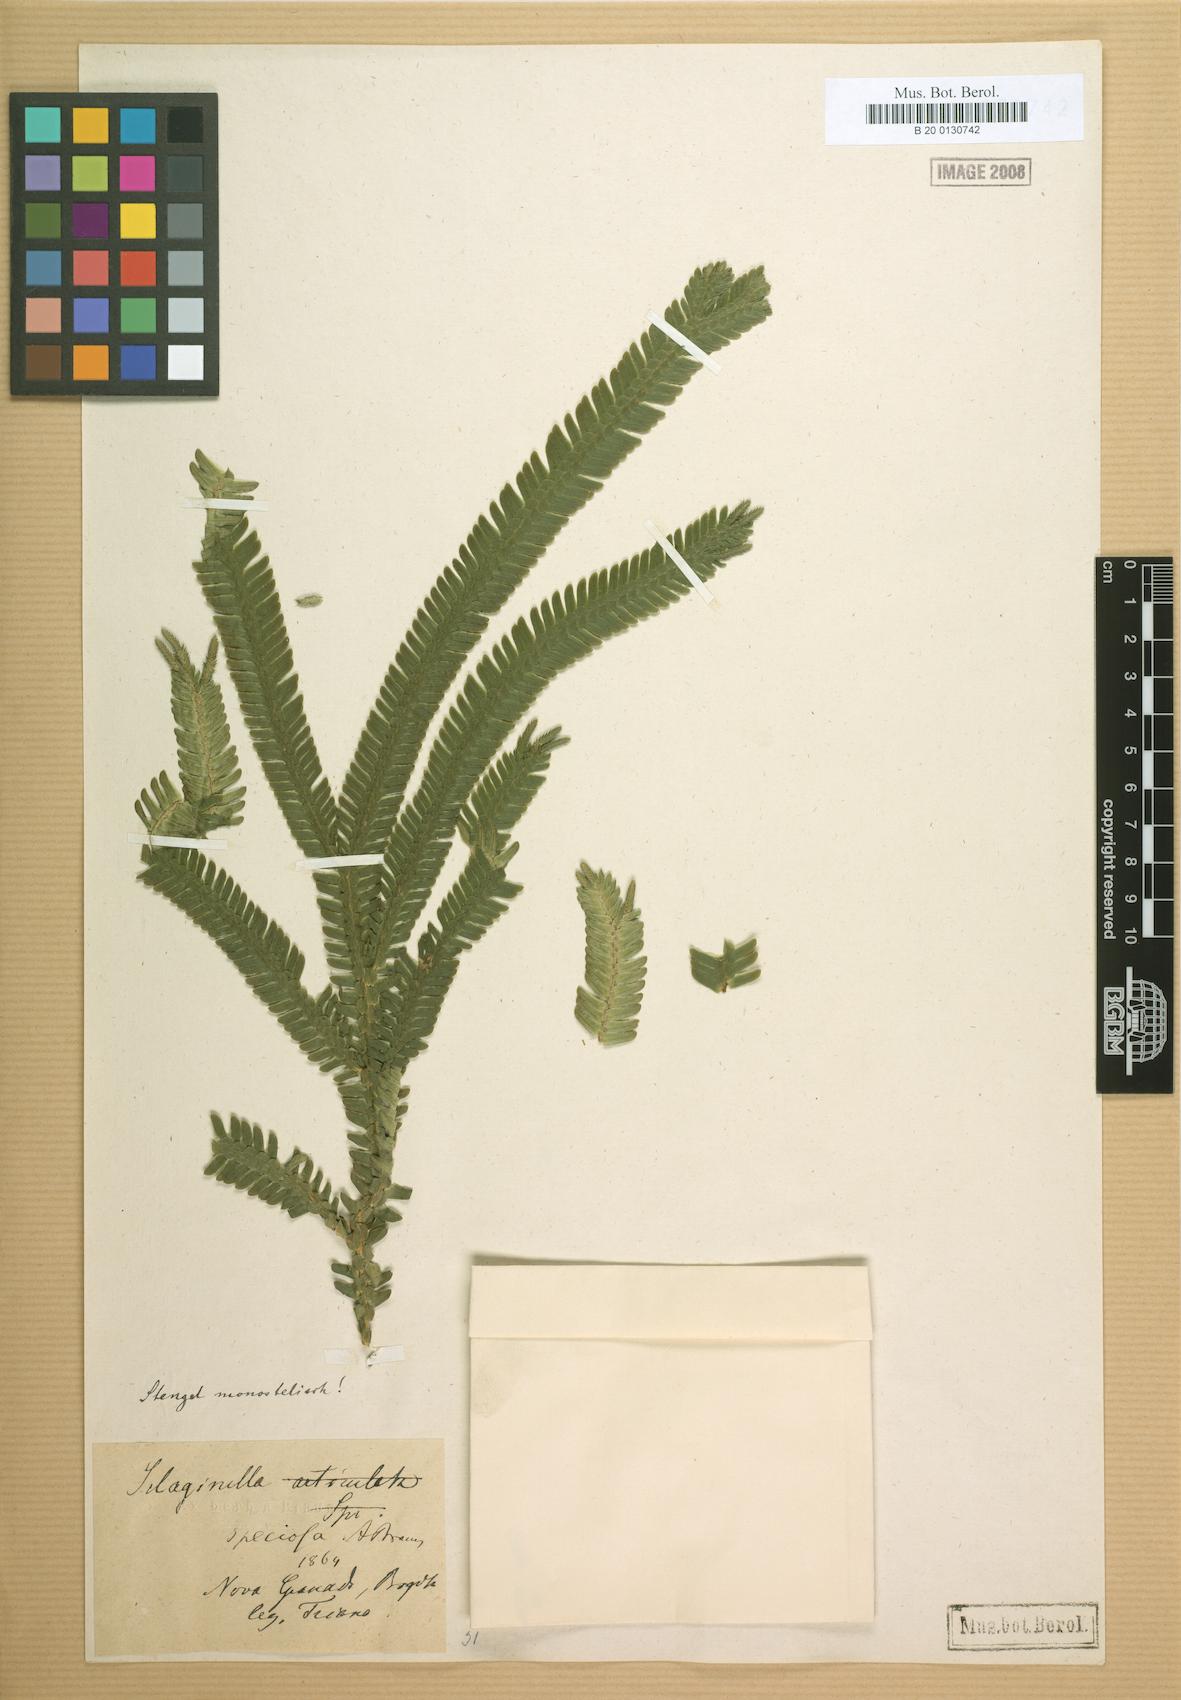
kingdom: Plantae
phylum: Tracheophyta
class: Lycopodiopsida
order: Selaginellales
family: Selaginellaceae
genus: Selaginella
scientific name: Selaginella speciosa
